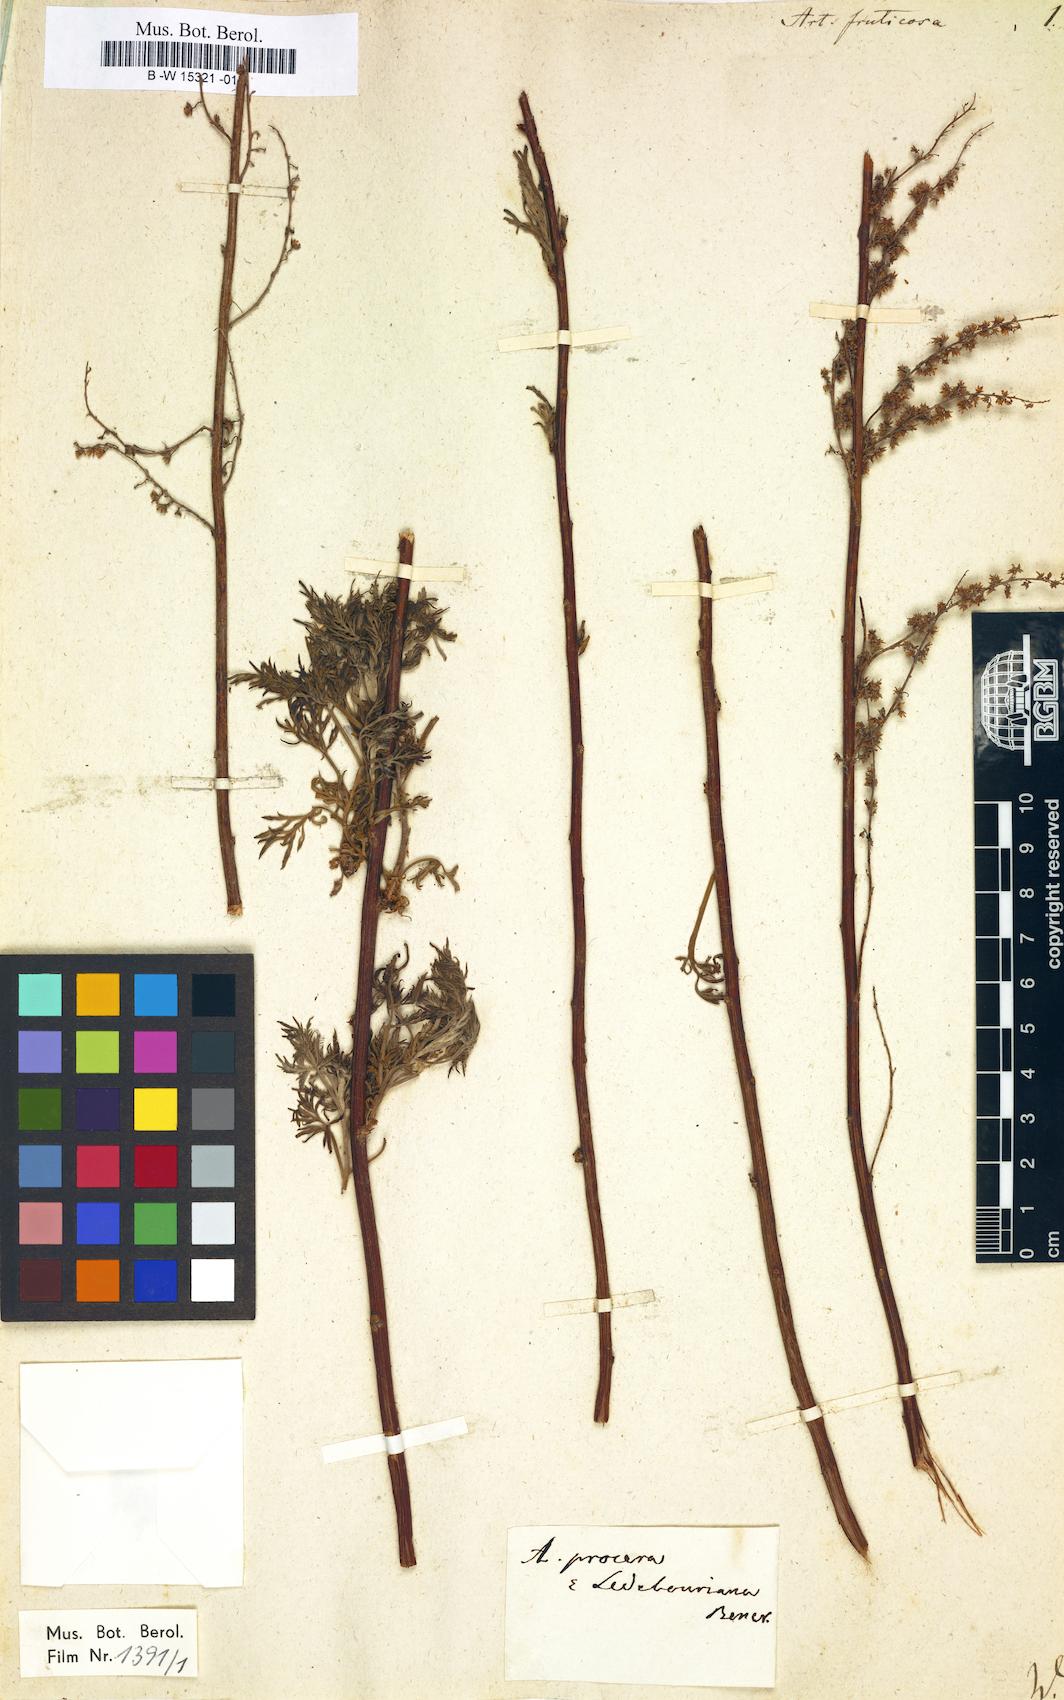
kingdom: Plantae
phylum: Tracheophyta
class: Magnoliopsida
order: Asterales
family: Asteraceae
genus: Artemisia
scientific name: Artemisia arenaria
